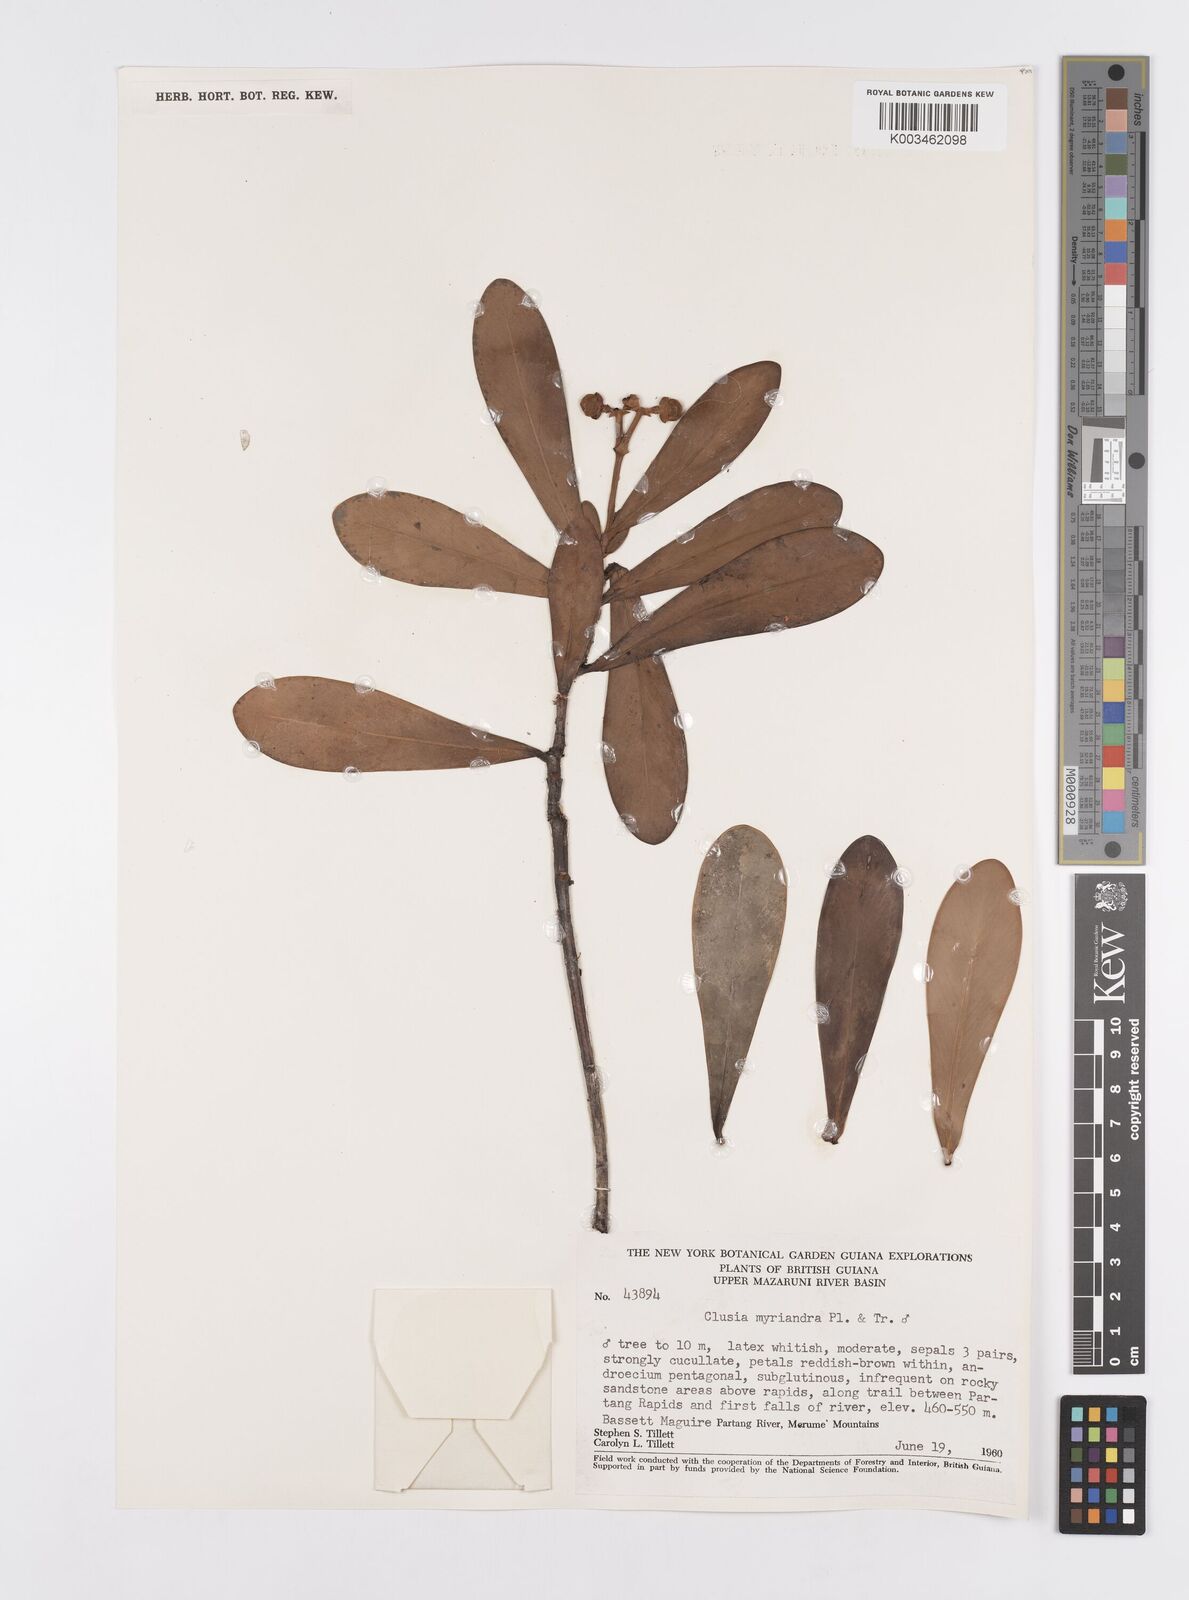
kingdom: Plantae
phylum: Tracheophyta
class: Magnoliopsida
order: Malpighiales
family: Clusiaceae
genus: Clusia
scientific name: Clusia myriandra
